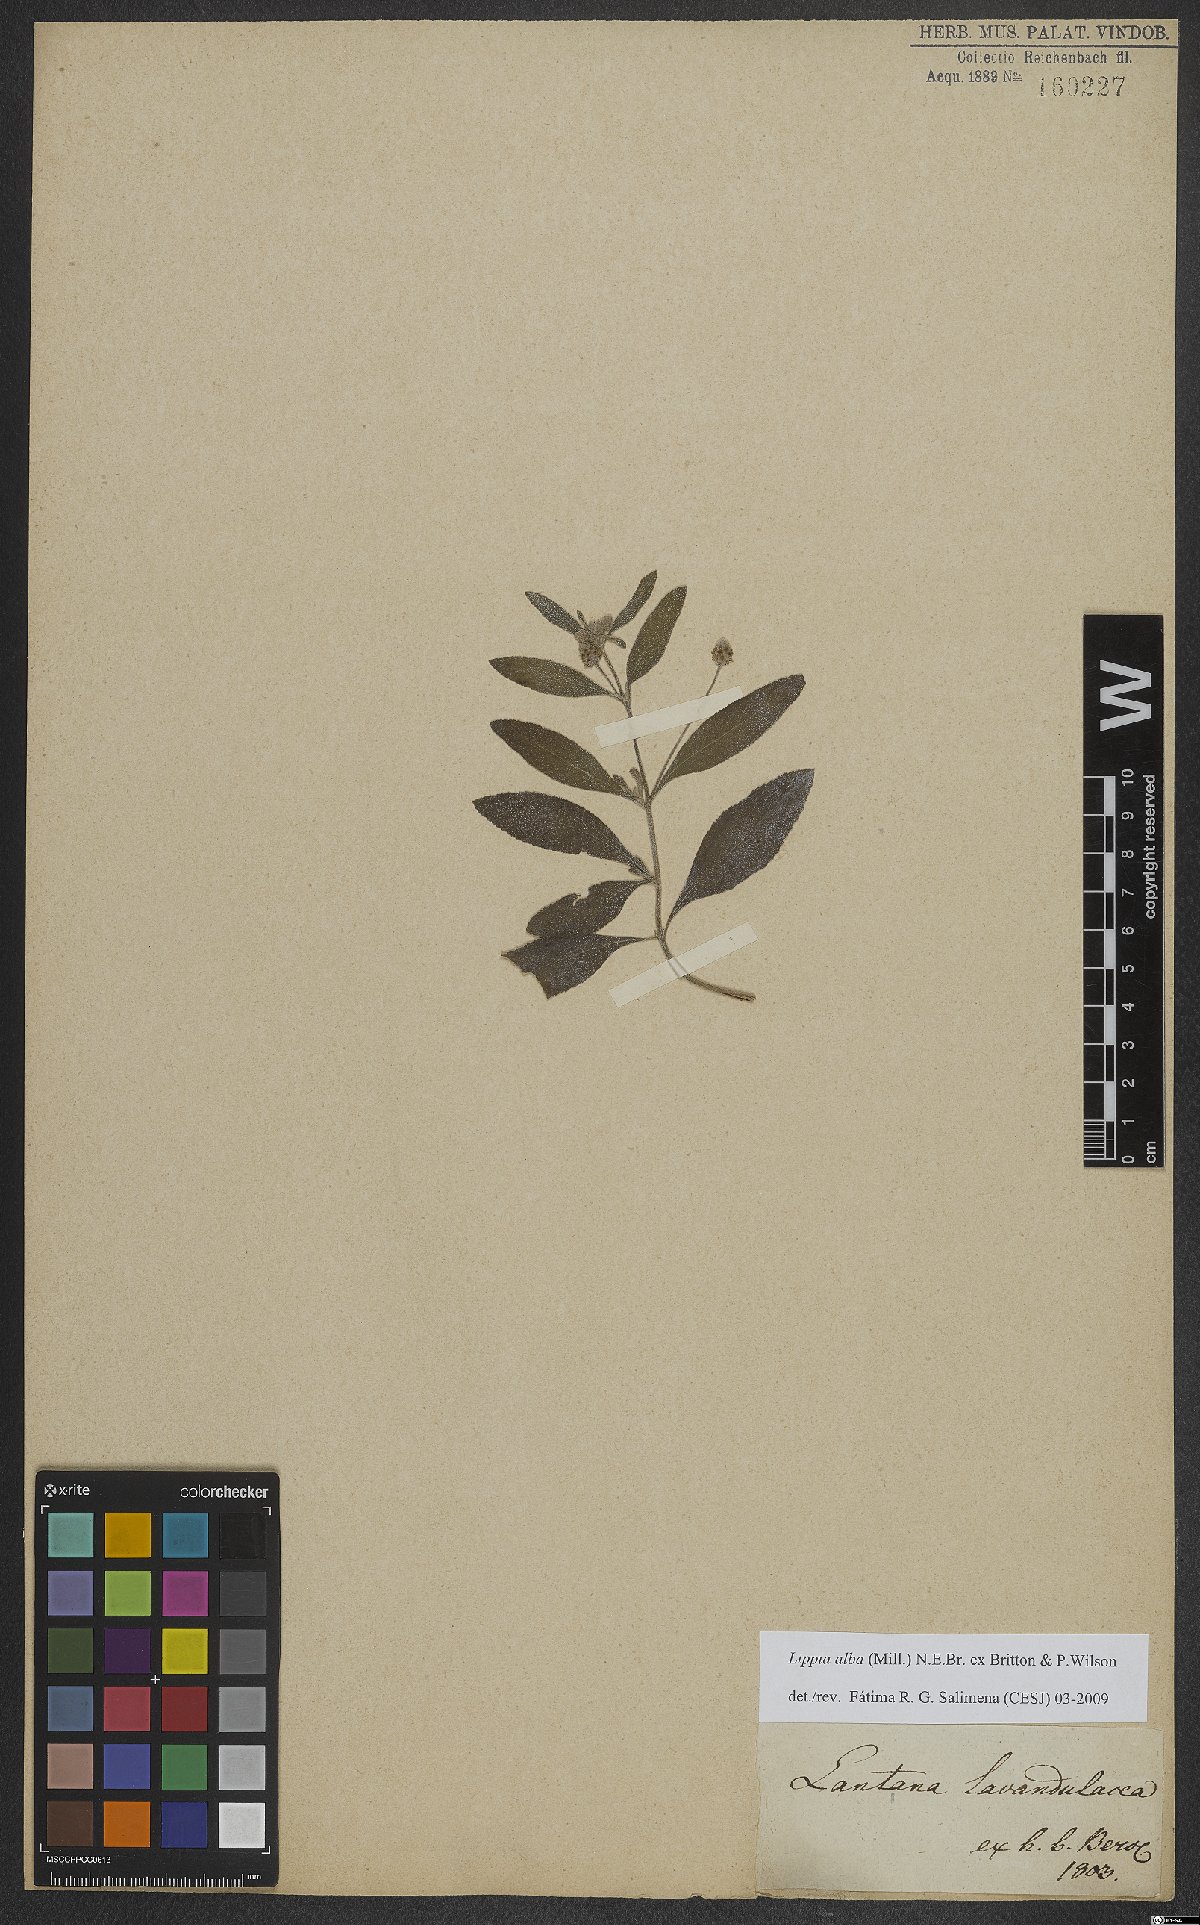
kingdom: Plantae
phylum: Tracheophyta
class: Magnoliopsida
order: Lamiales
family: Verbenaceae
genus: Lippia
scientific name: Lippia alba
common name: Bushy matgrass
